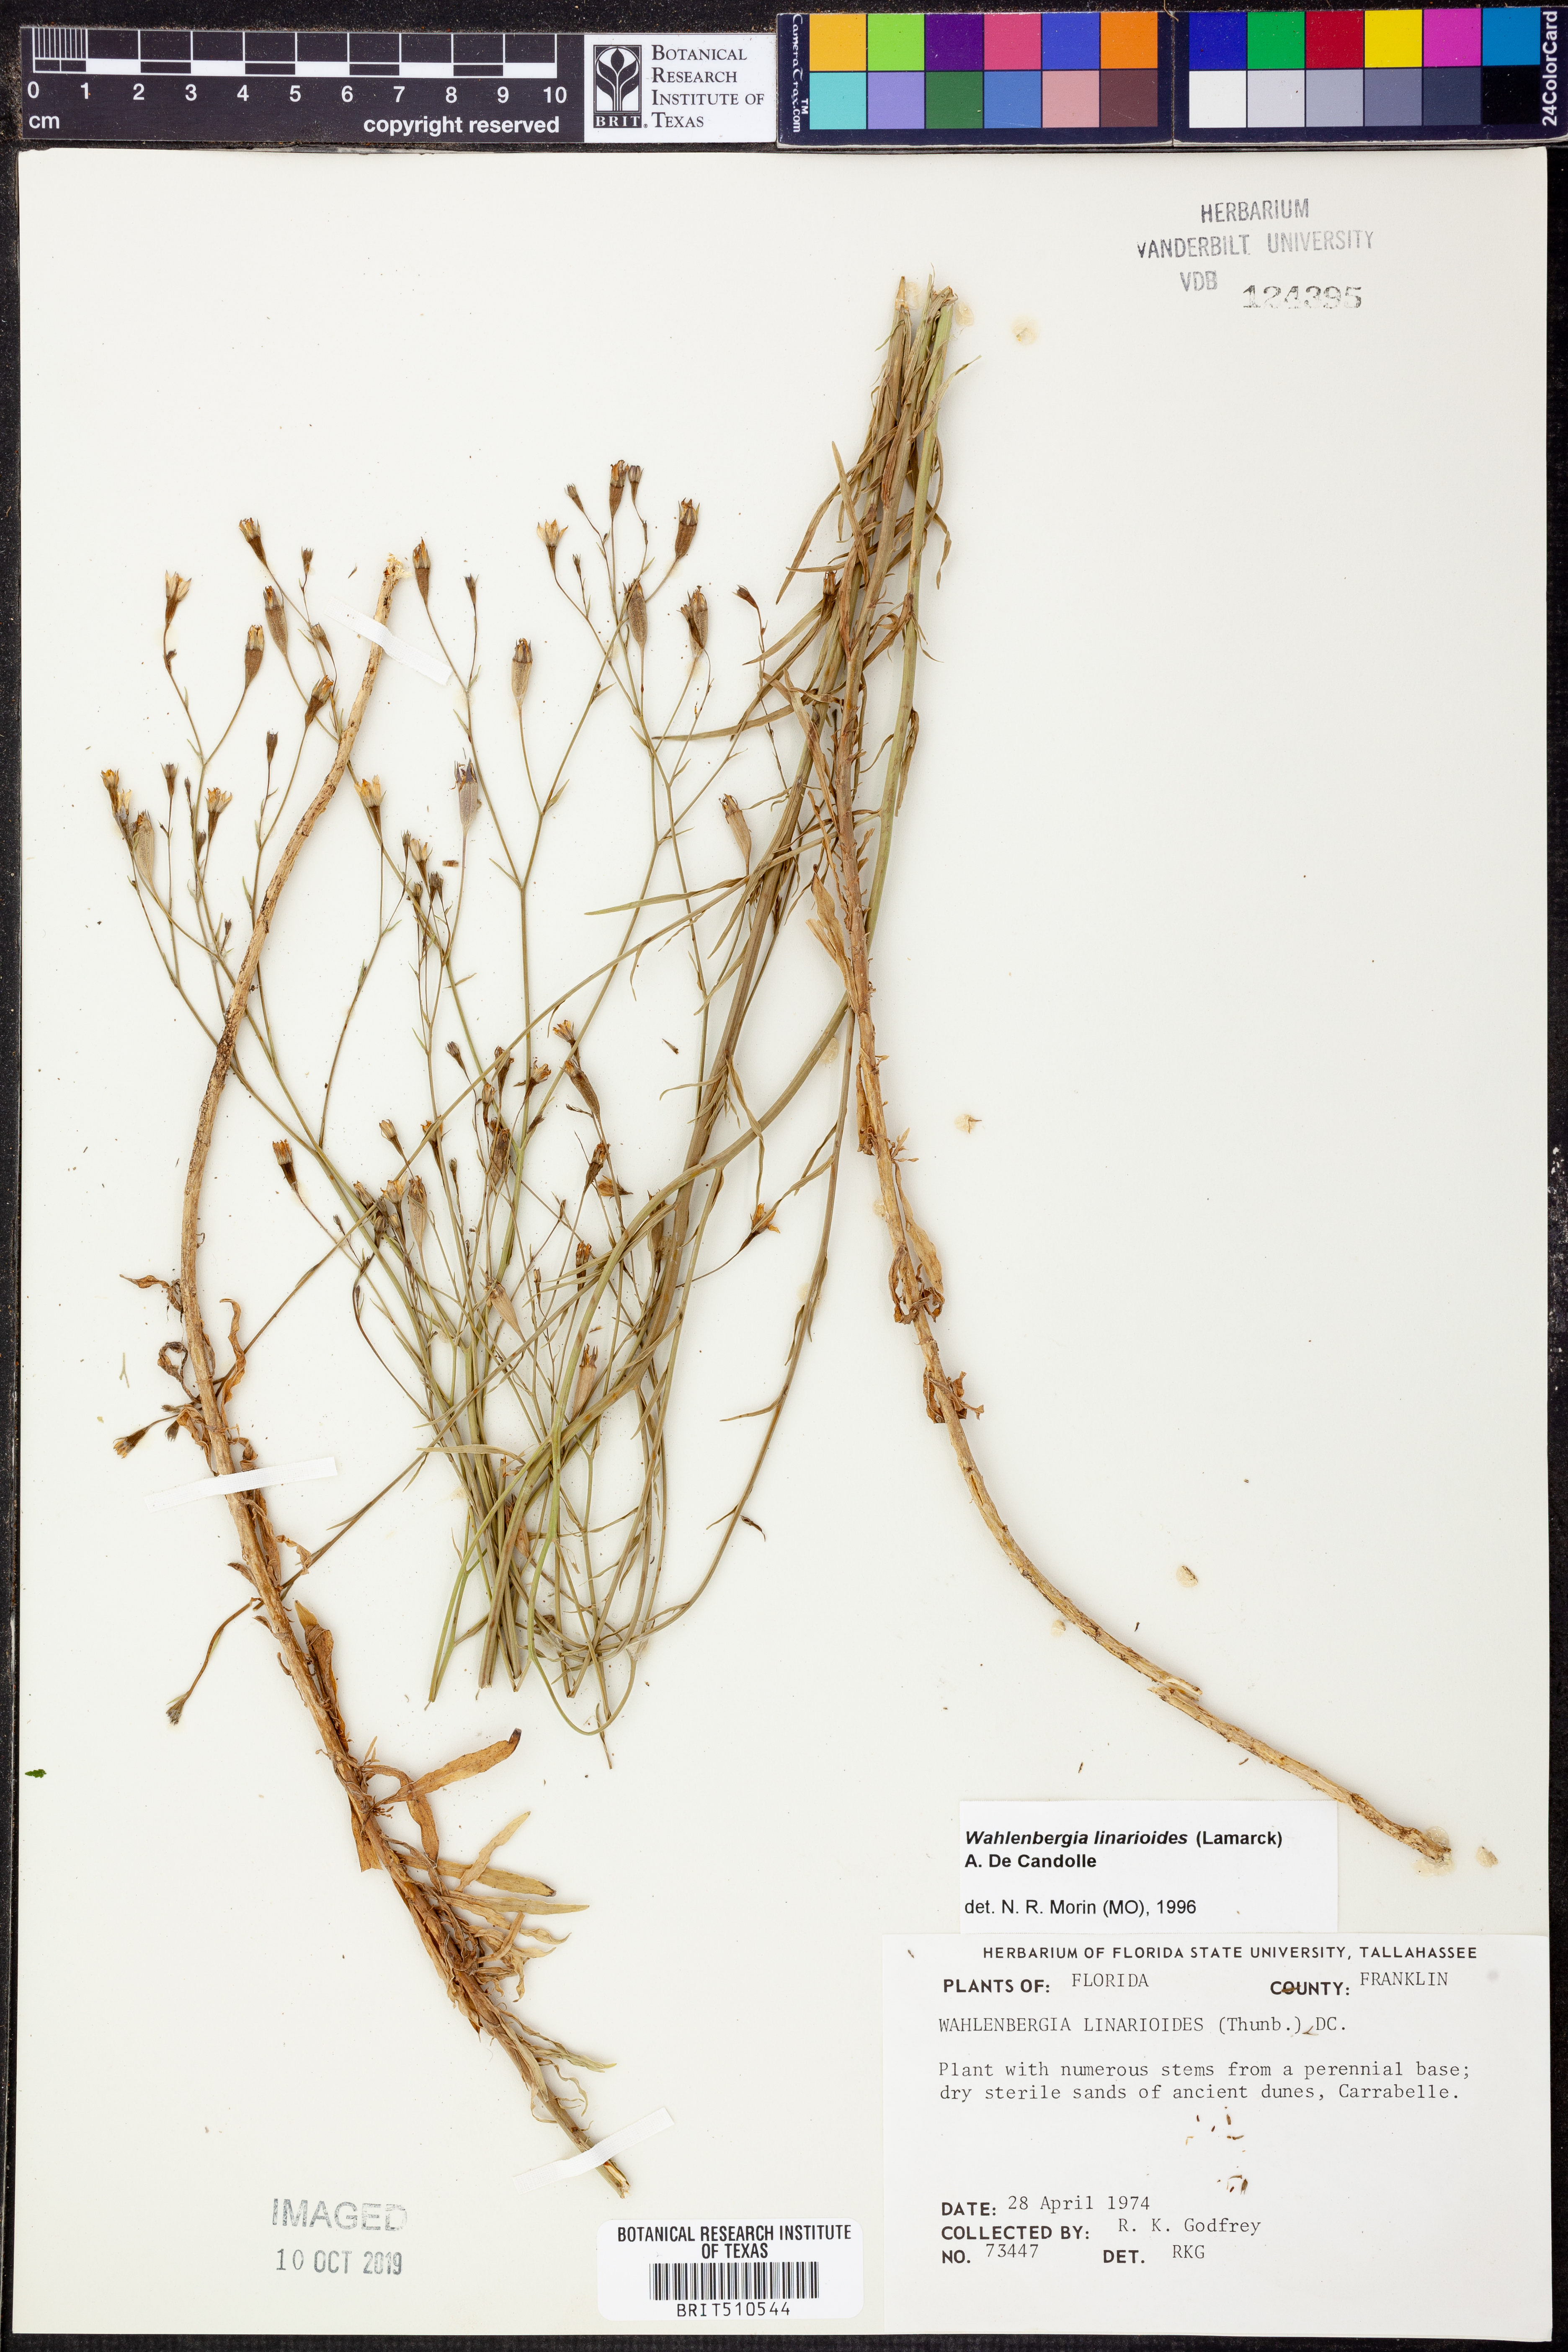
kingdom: Plantae
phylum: Tracheophyta
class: Magnoliopsida
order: Asterales
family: Campanulaceae
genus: Wahlenbergia
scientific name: Wahlenbergia linarioides
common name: Tuffybells
